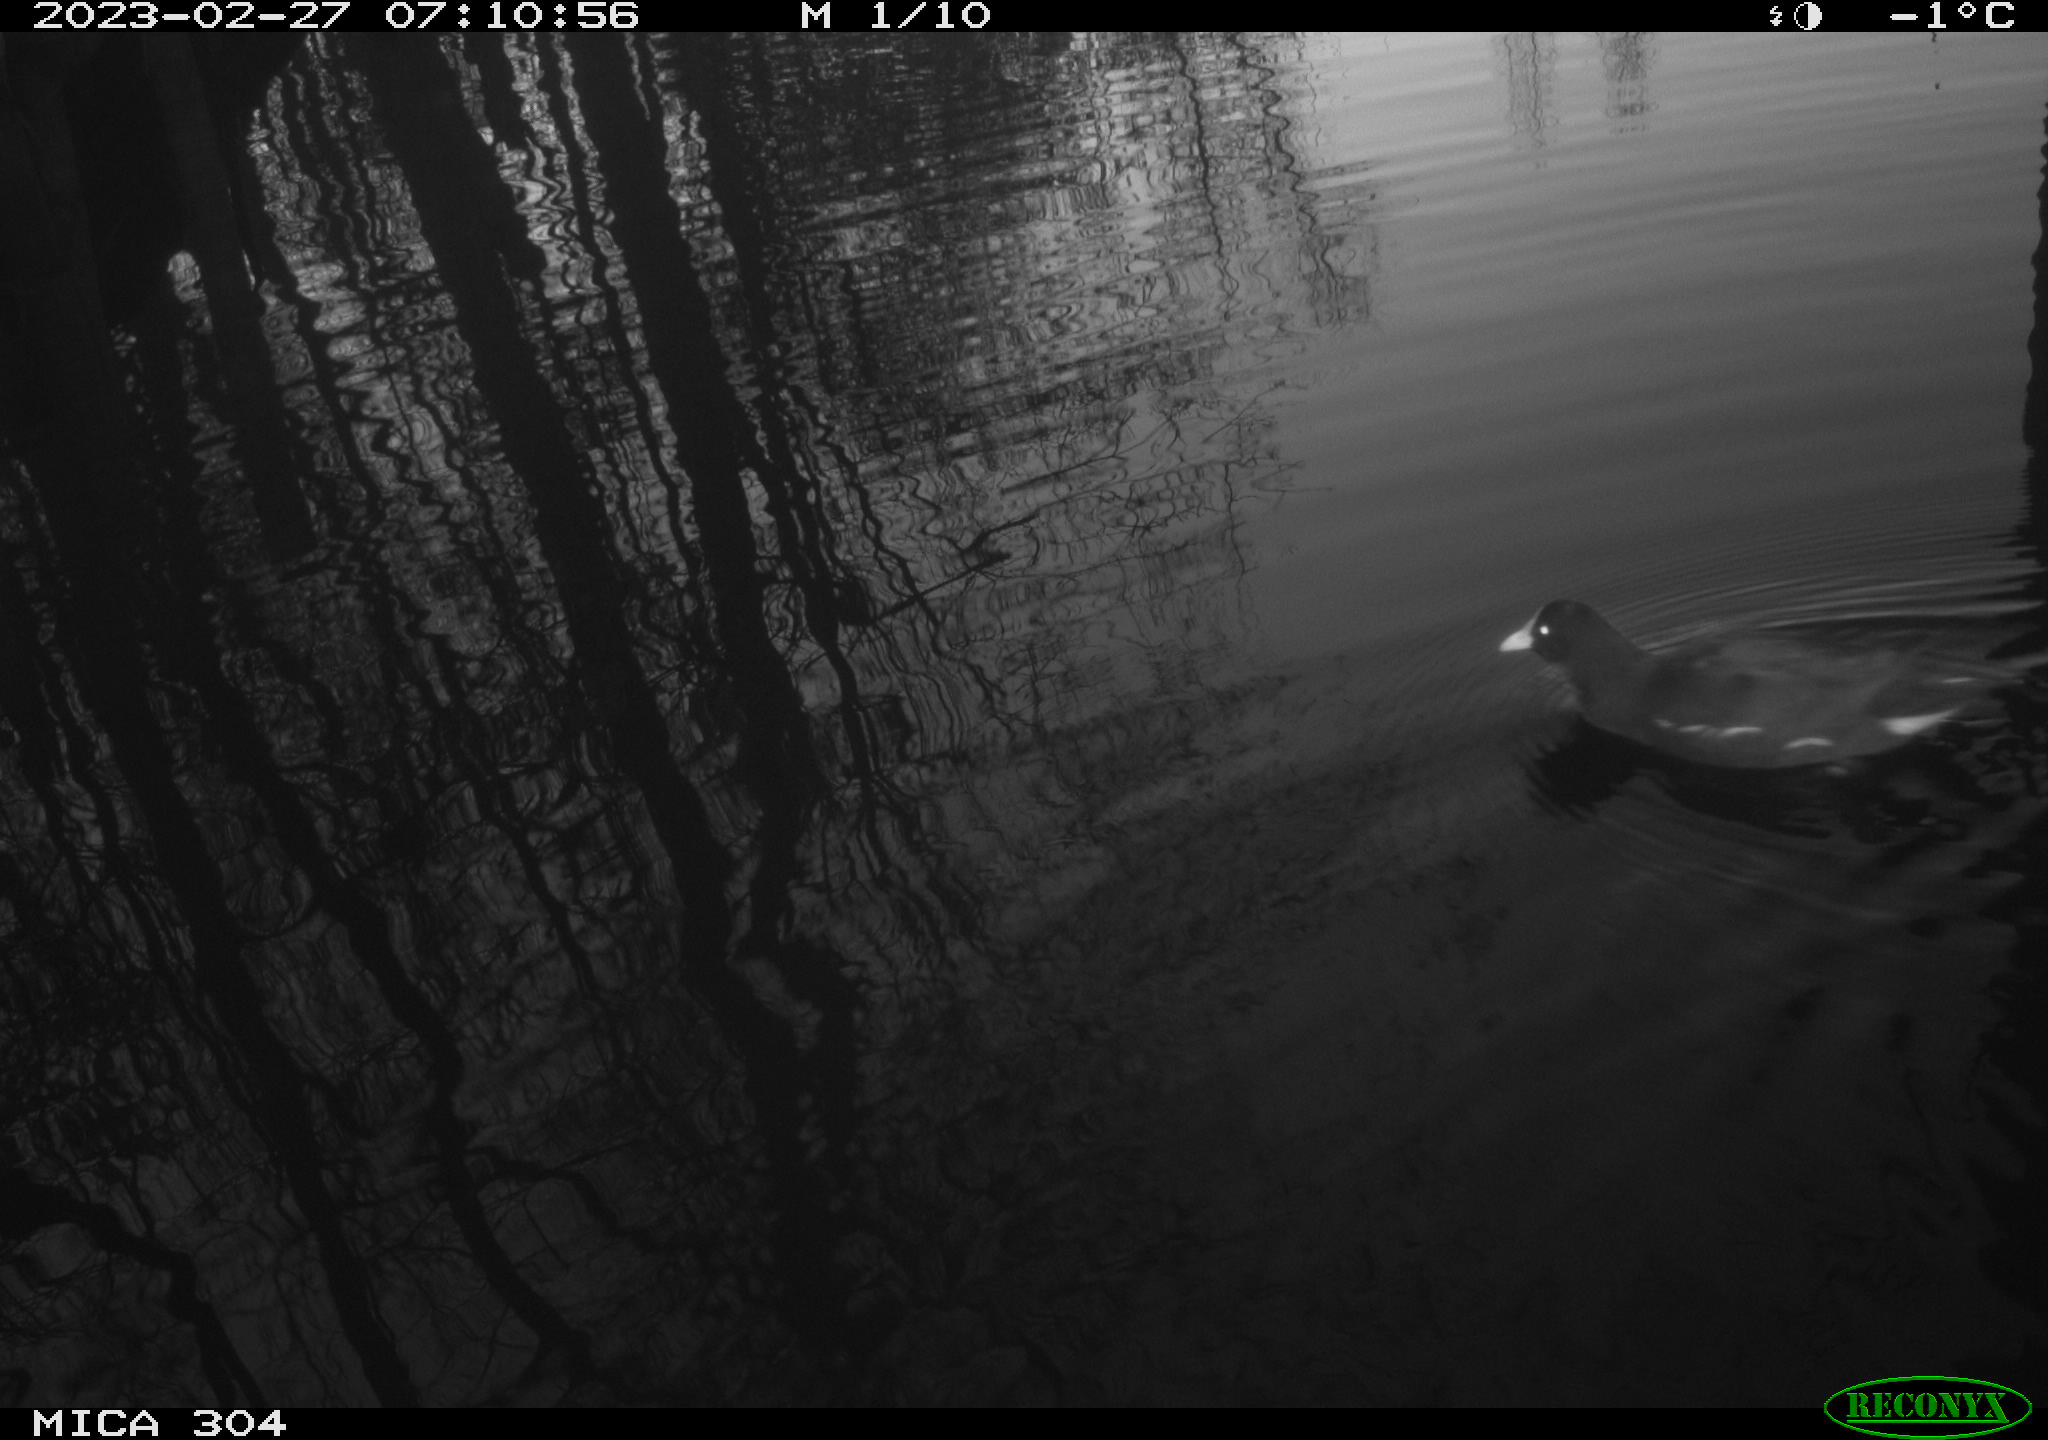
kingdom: Animalia
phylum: Chordata
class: Aves
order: Gruiformes
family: Rallidae
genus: Gallinula
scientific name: Gallinula chloropus
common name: Common moorhen
